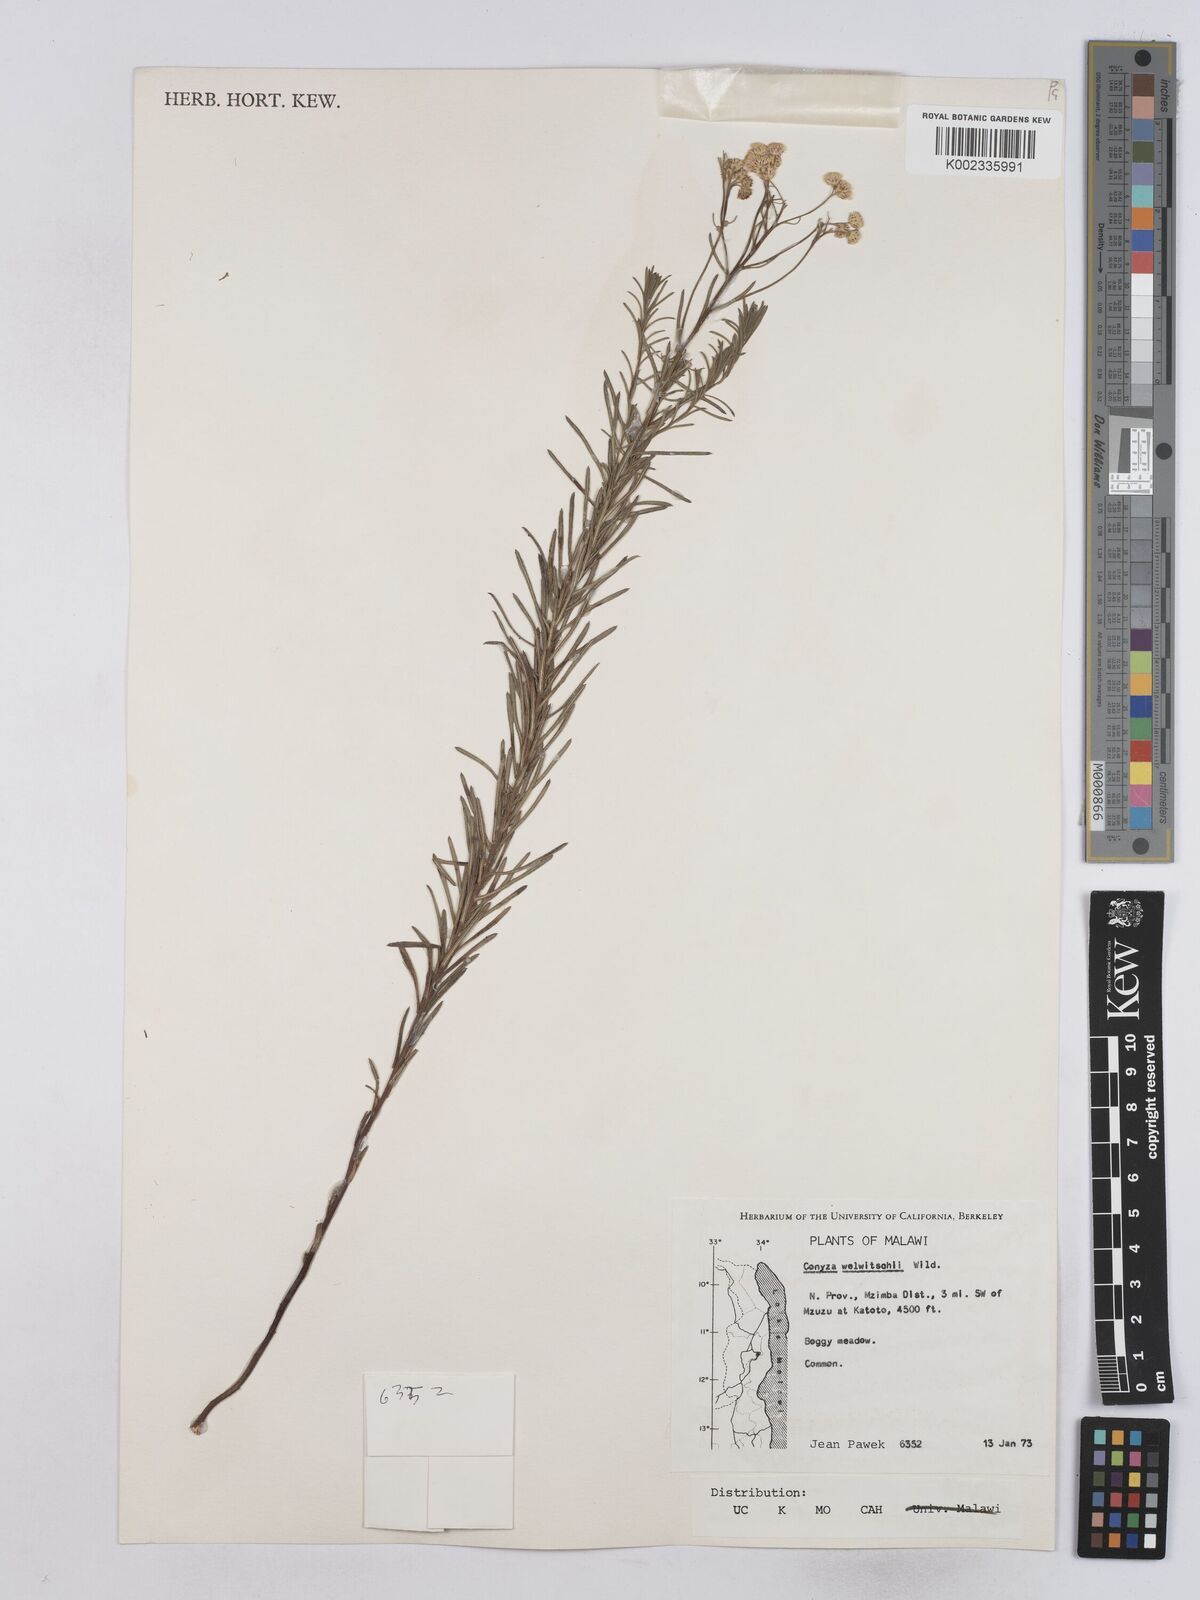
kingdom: Plantae
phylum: Tracheophyta
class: Magnoliopsida
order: Asterales
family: Asteraceae
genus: Nidorella
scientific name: Nidorella welwitschii
